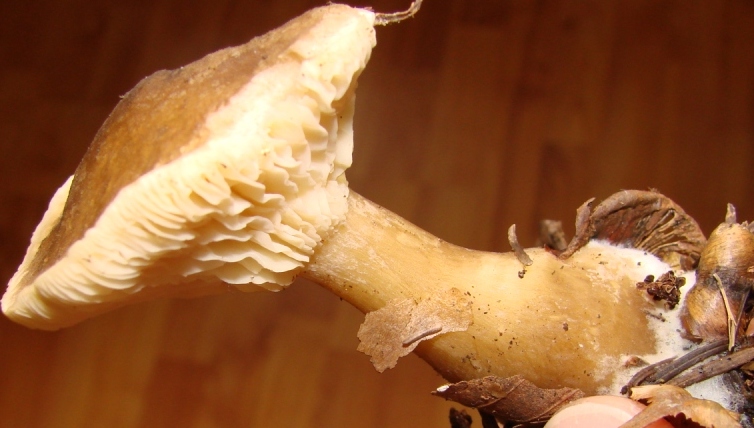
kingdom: Fungi
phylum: Basidiomycota
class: Agaricomycetes
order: Agaricales
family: Hygrophoraceae
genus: Ampulloclitocybe
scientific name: Ampulloclitocybe clavipes
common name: køllefod
